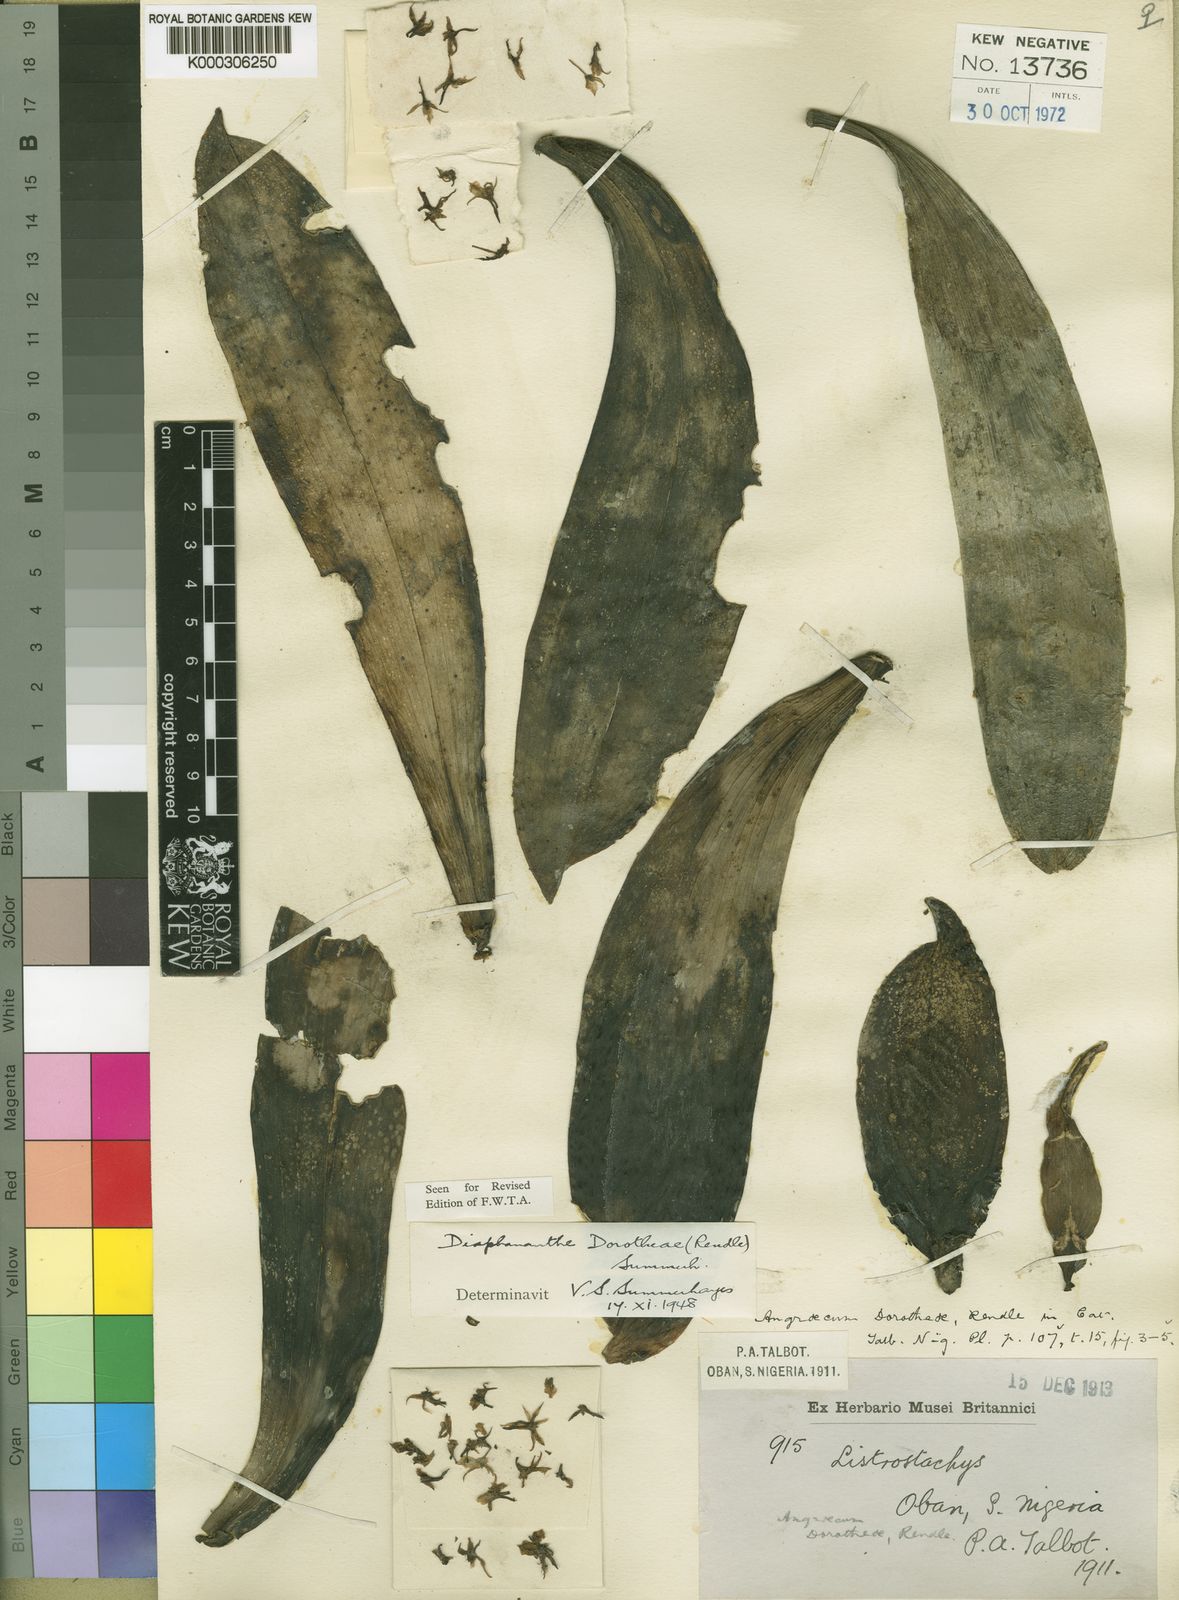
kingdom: Plantae
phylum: Tracheophyta
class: Liliopsida
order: Asparagales
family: Orchidaceae
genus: Diaphananthe
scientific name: Diaphananthe dorotheae
